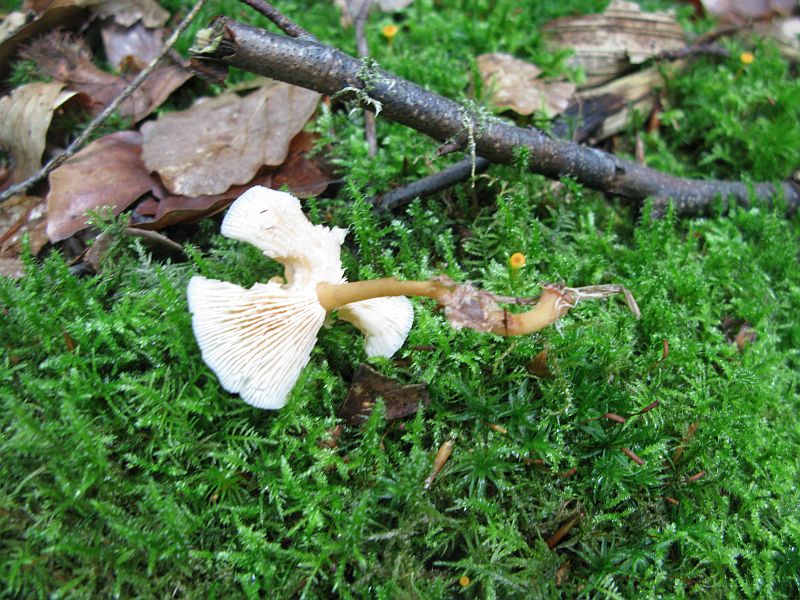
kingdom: Fungi
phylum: Basidiomycota
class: Agaricomycetes
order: Agaricales
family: Omphalotaceae
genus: Gymnopus
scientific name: Gymnopus dryophilus
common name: løv-fladhat
